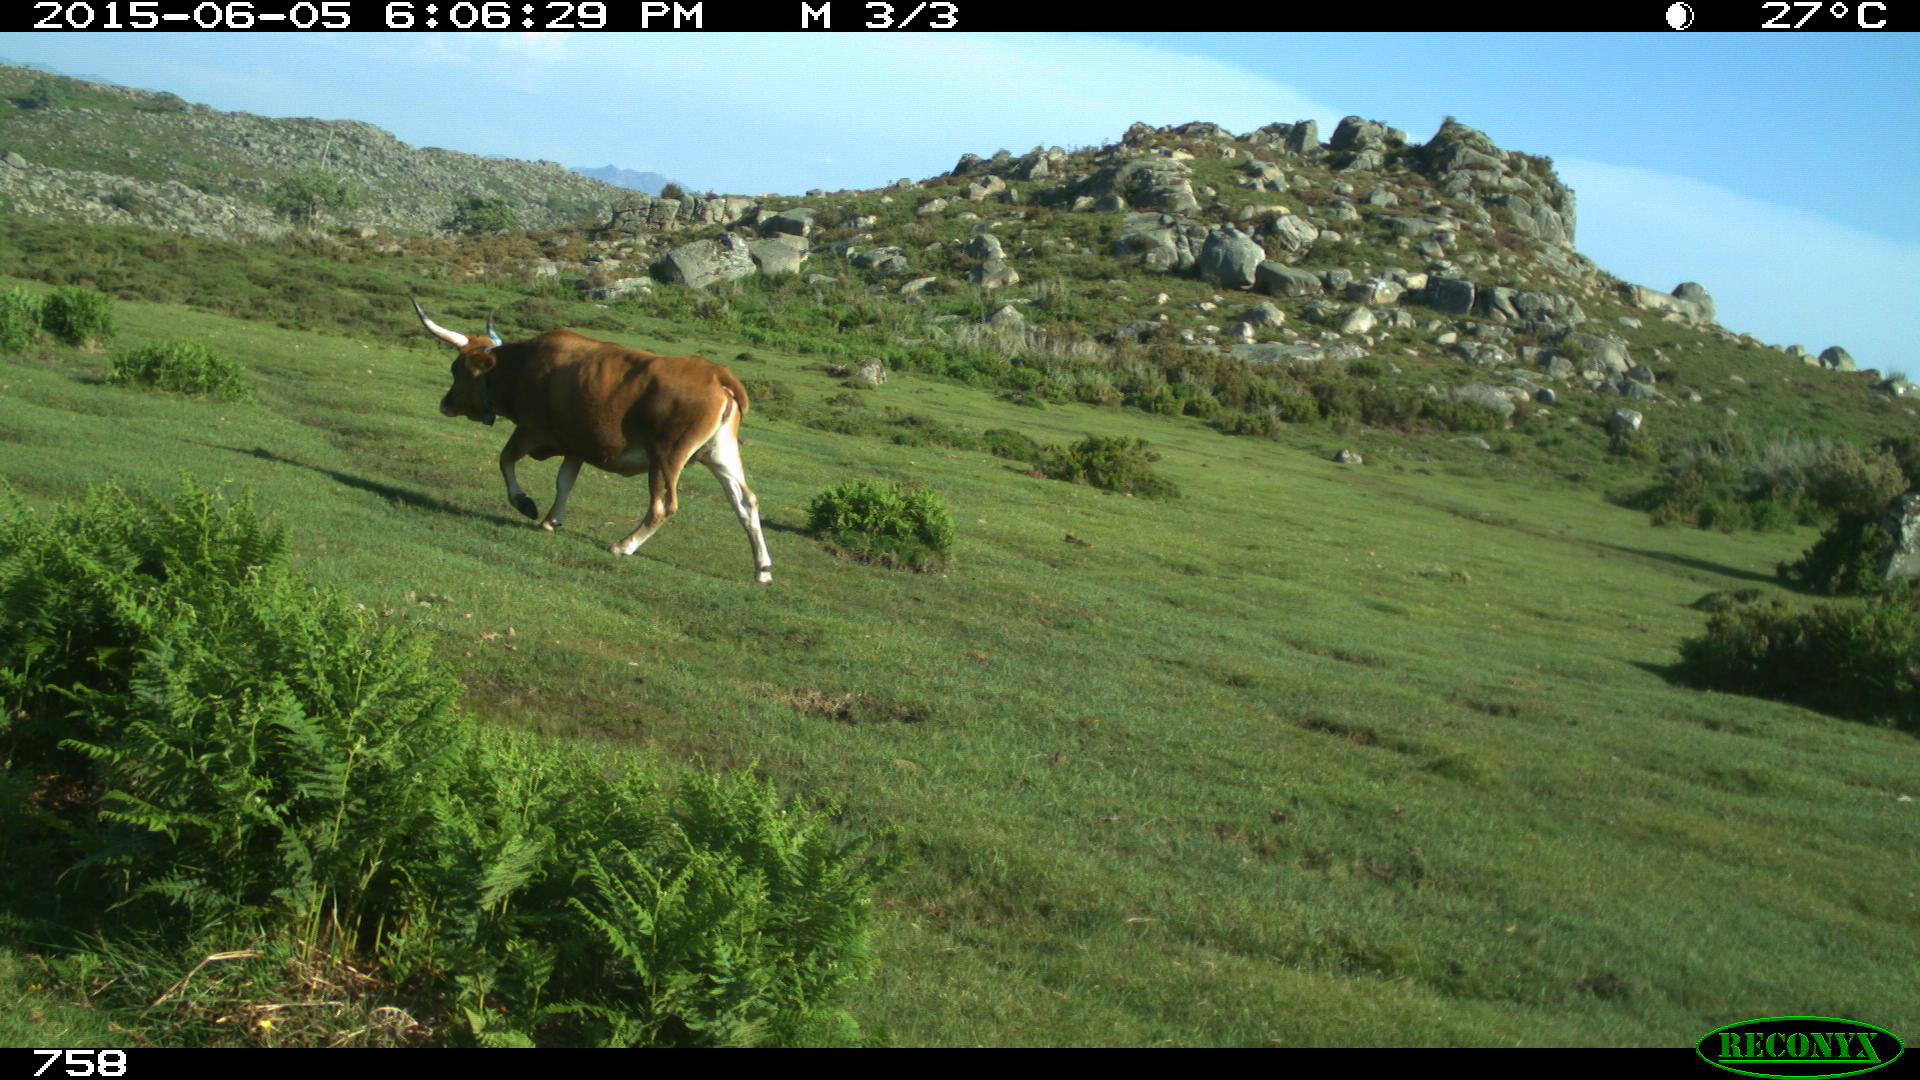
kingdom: Animalia
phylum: Chordata
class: Mammalia
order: Artiodactyla
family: Bovidae
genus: Bos
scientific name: Bos taurus
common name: Domesticated cattle
